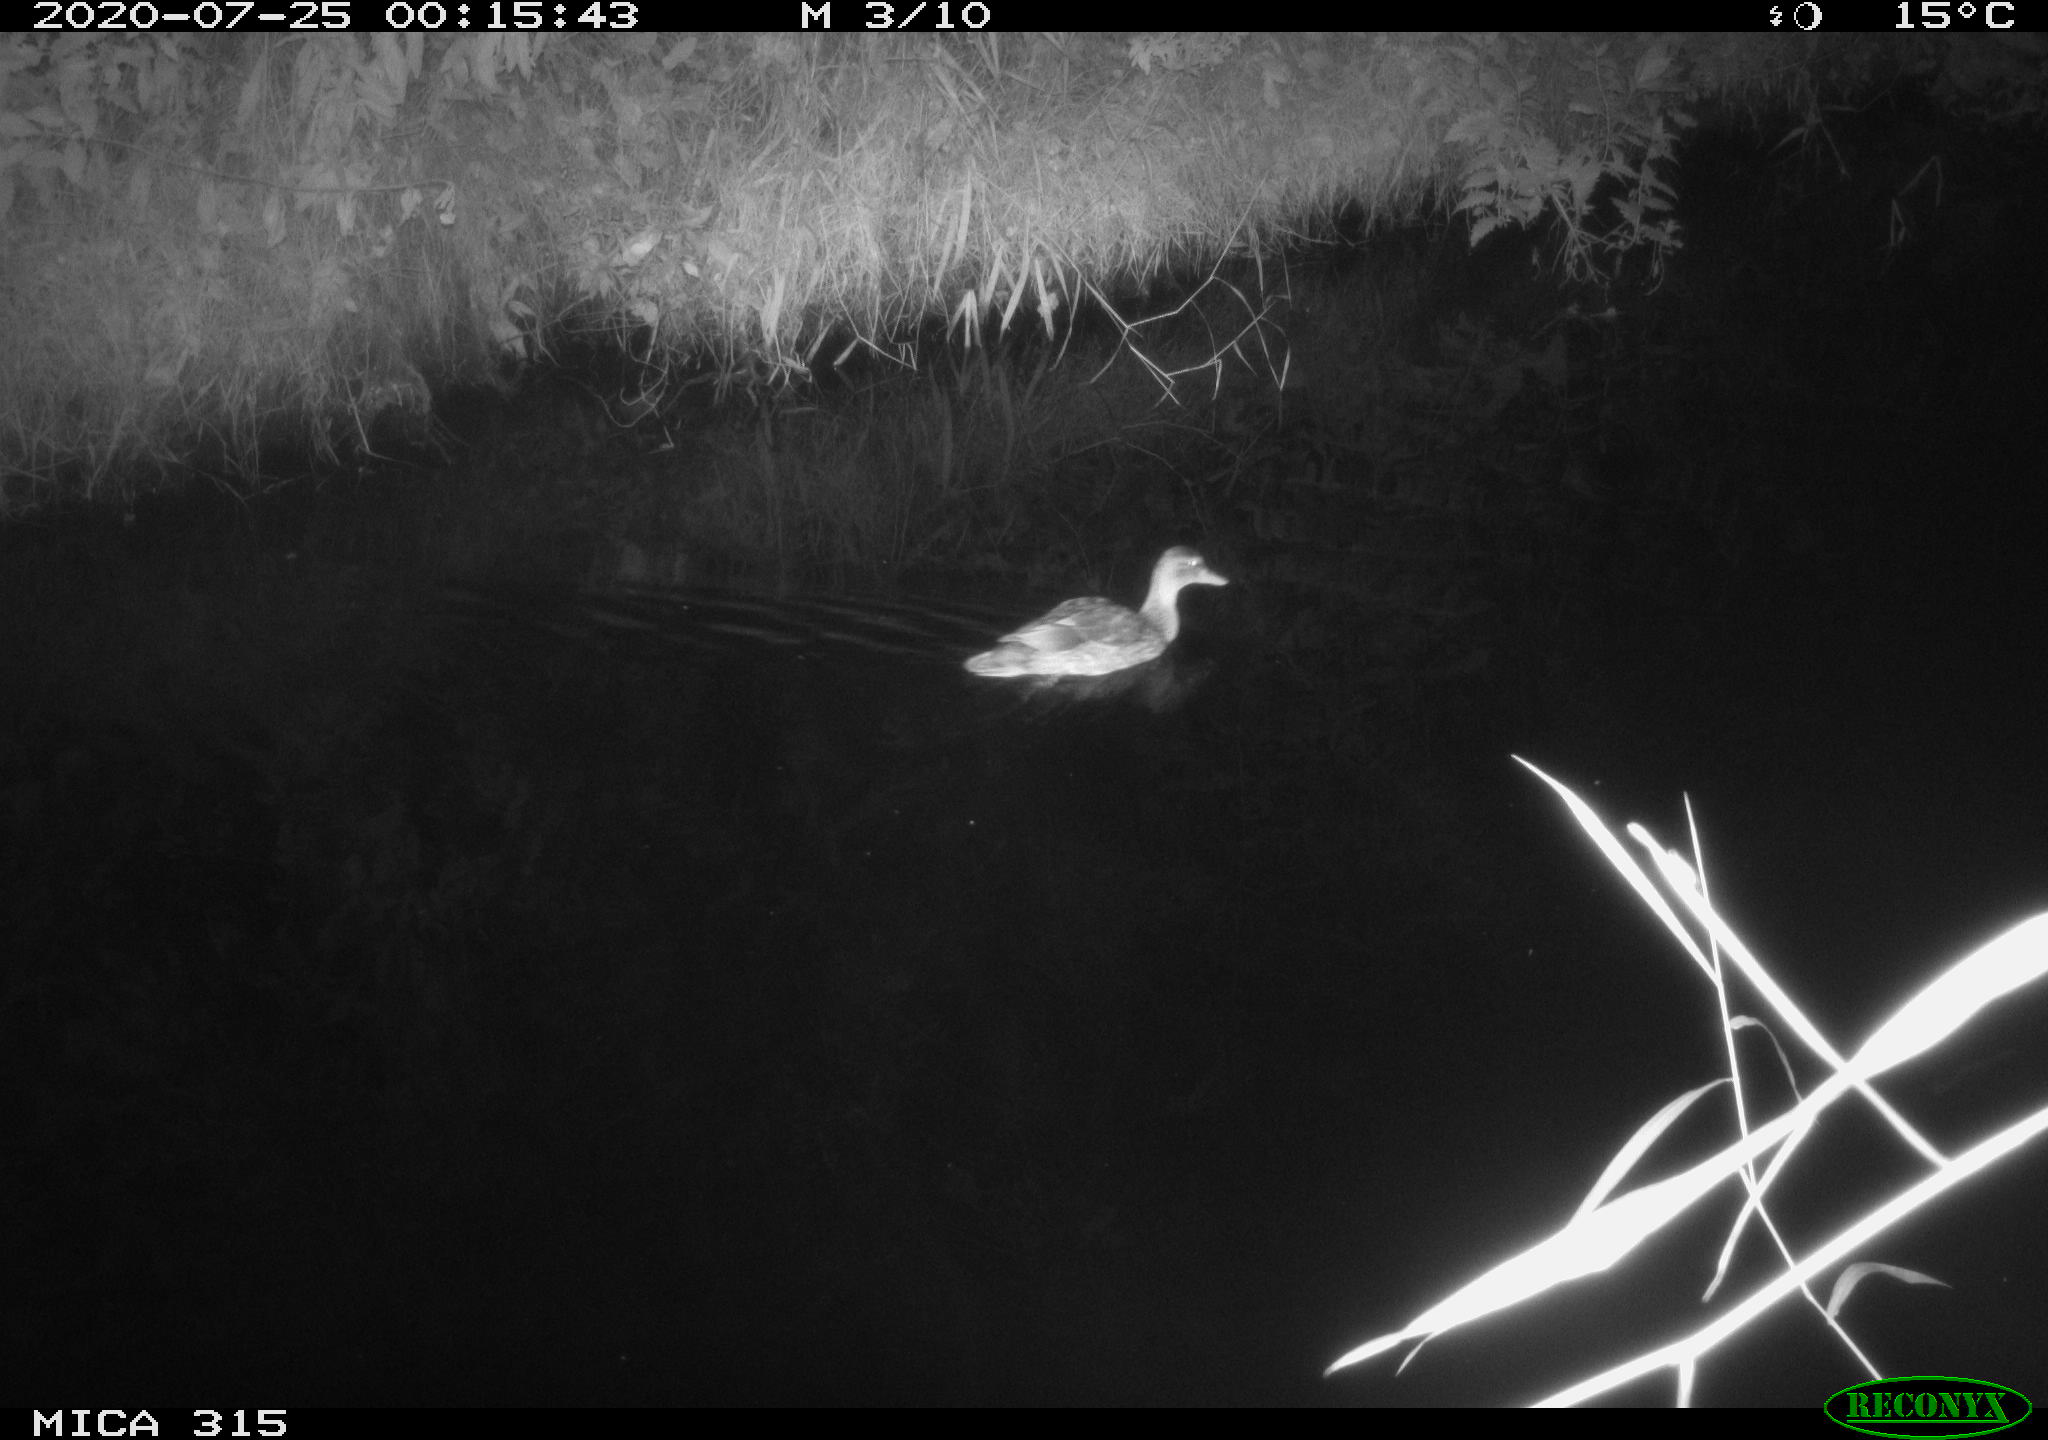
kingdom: Animalia
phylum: Chordata
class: Aves
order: Anseriformes
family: Anatidae
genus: Anas
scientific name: Anas platyrhynchos
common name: Mallard
